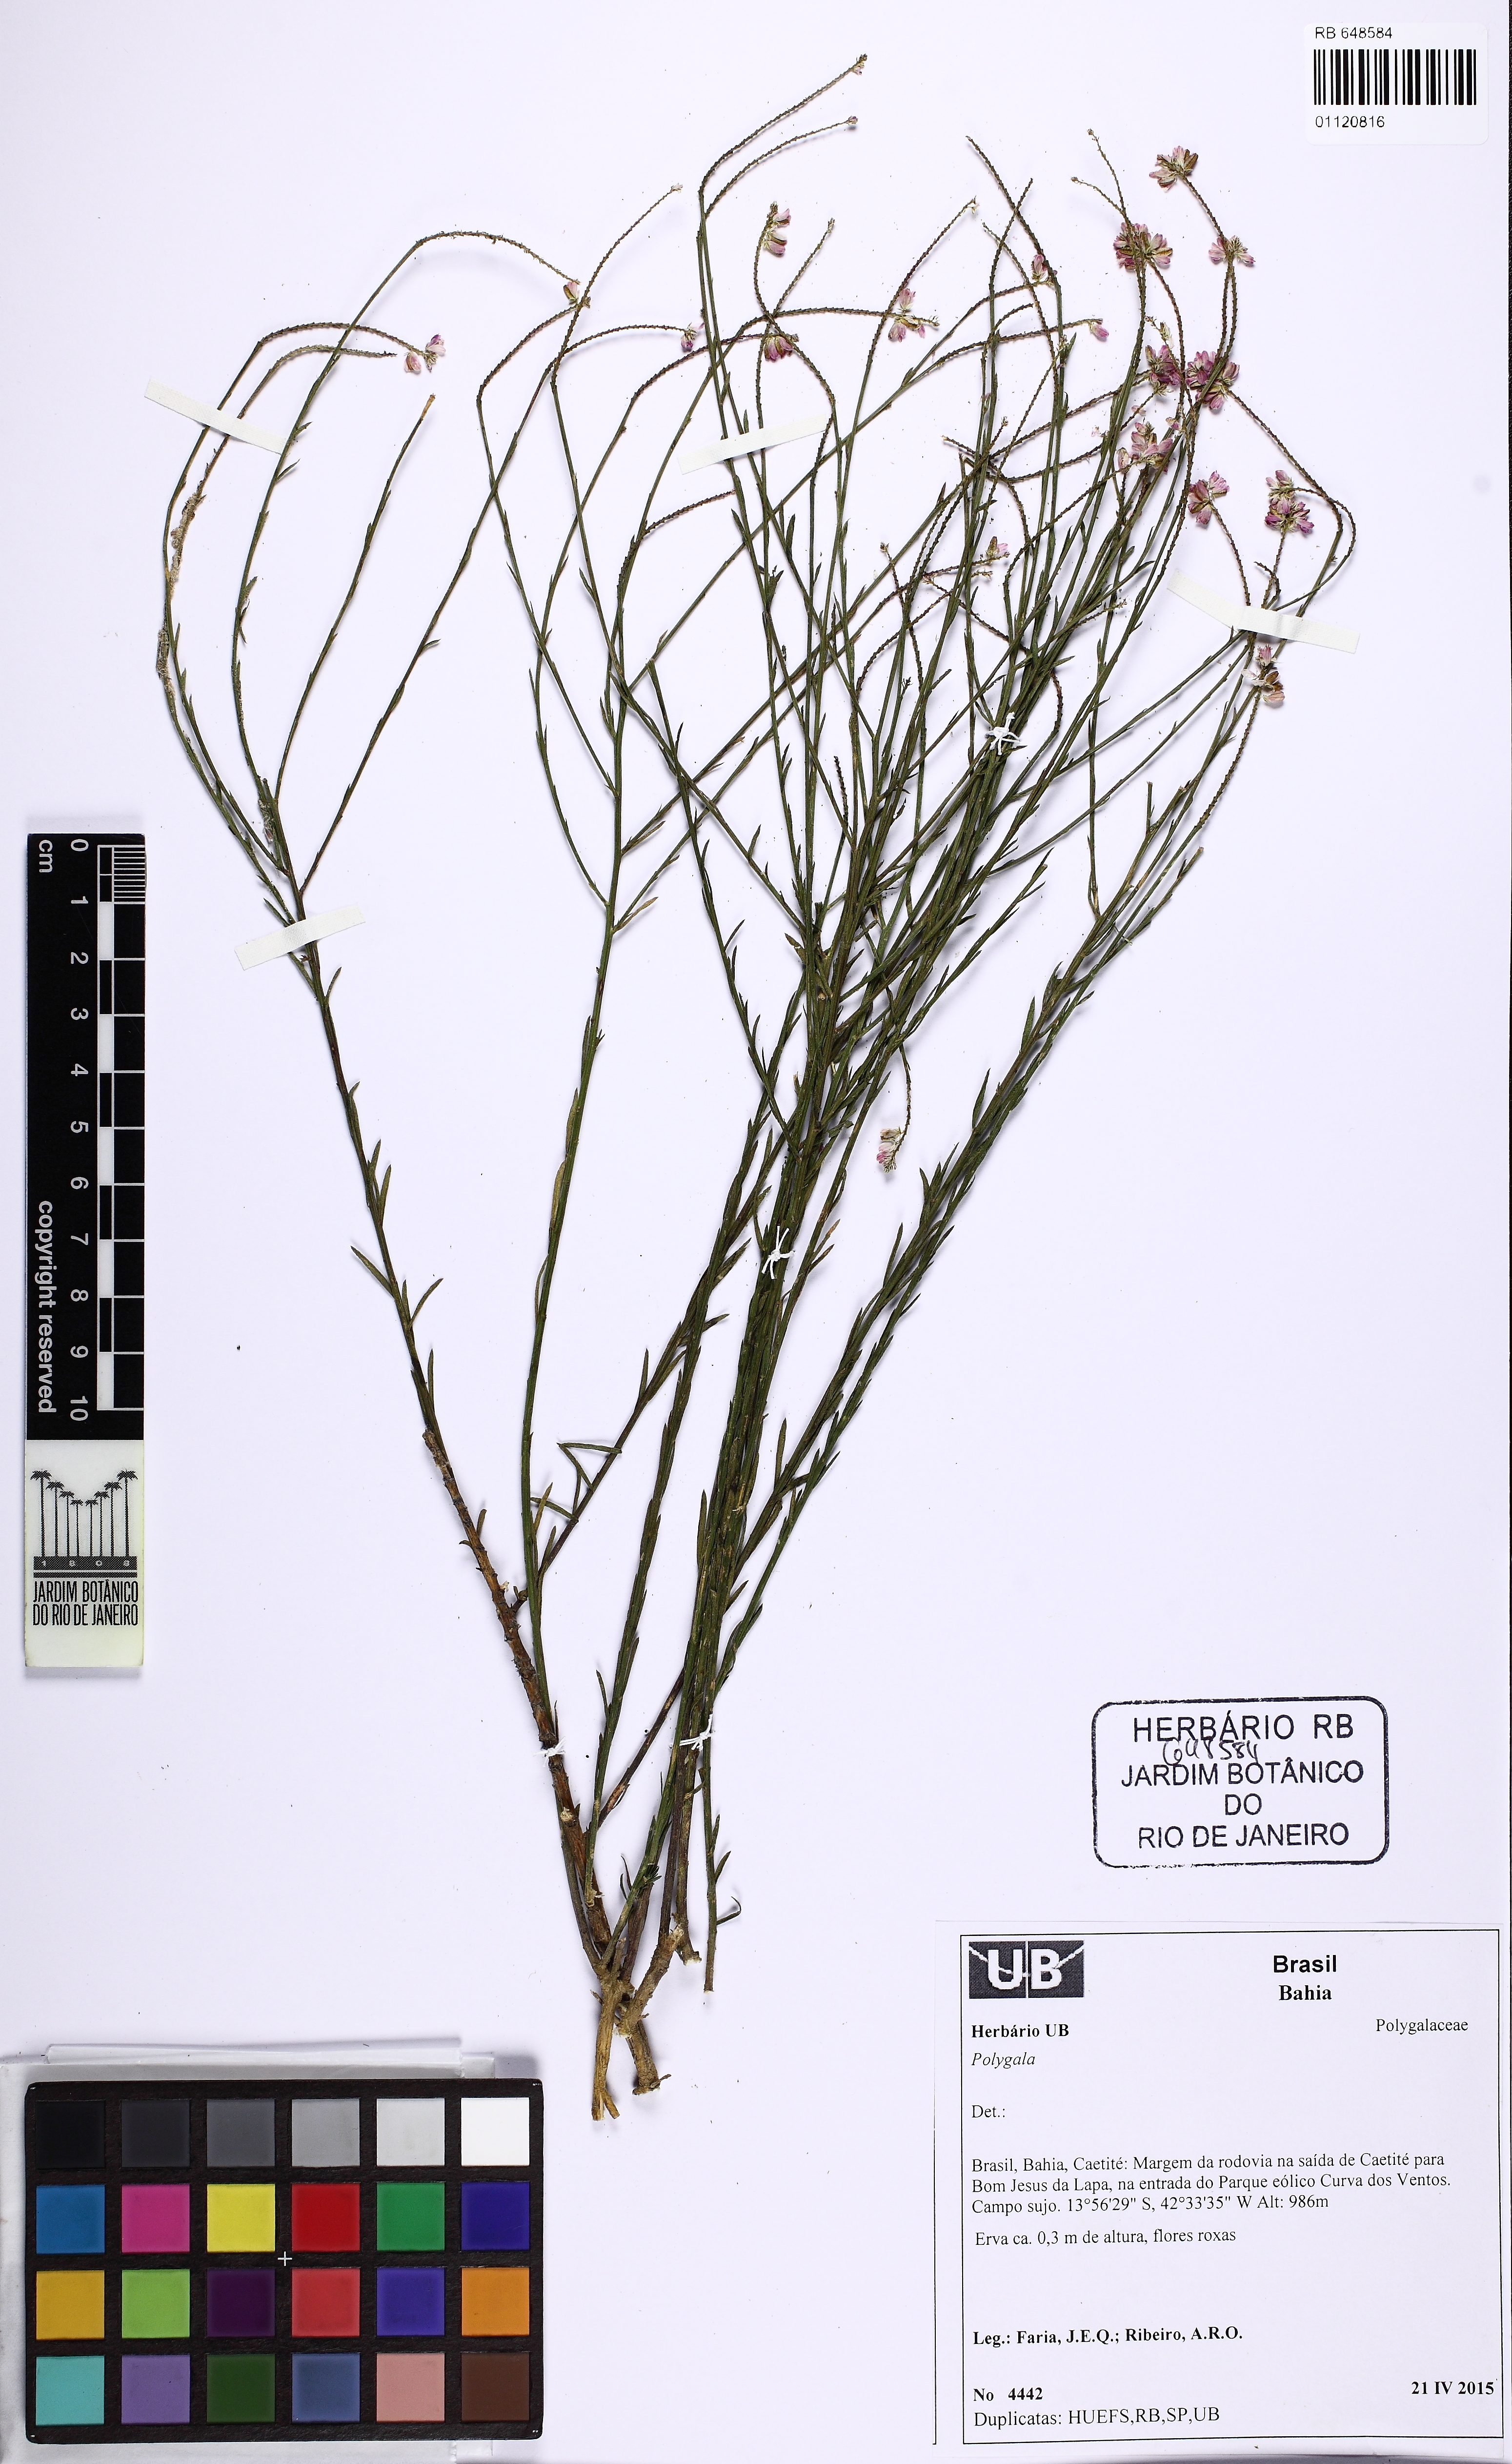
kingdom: Plantae
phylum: Tracheophyta
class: Magnoliopsida
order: Fabales
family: Polygalaceae
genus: Polygala
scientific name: Polygala trichosperma
